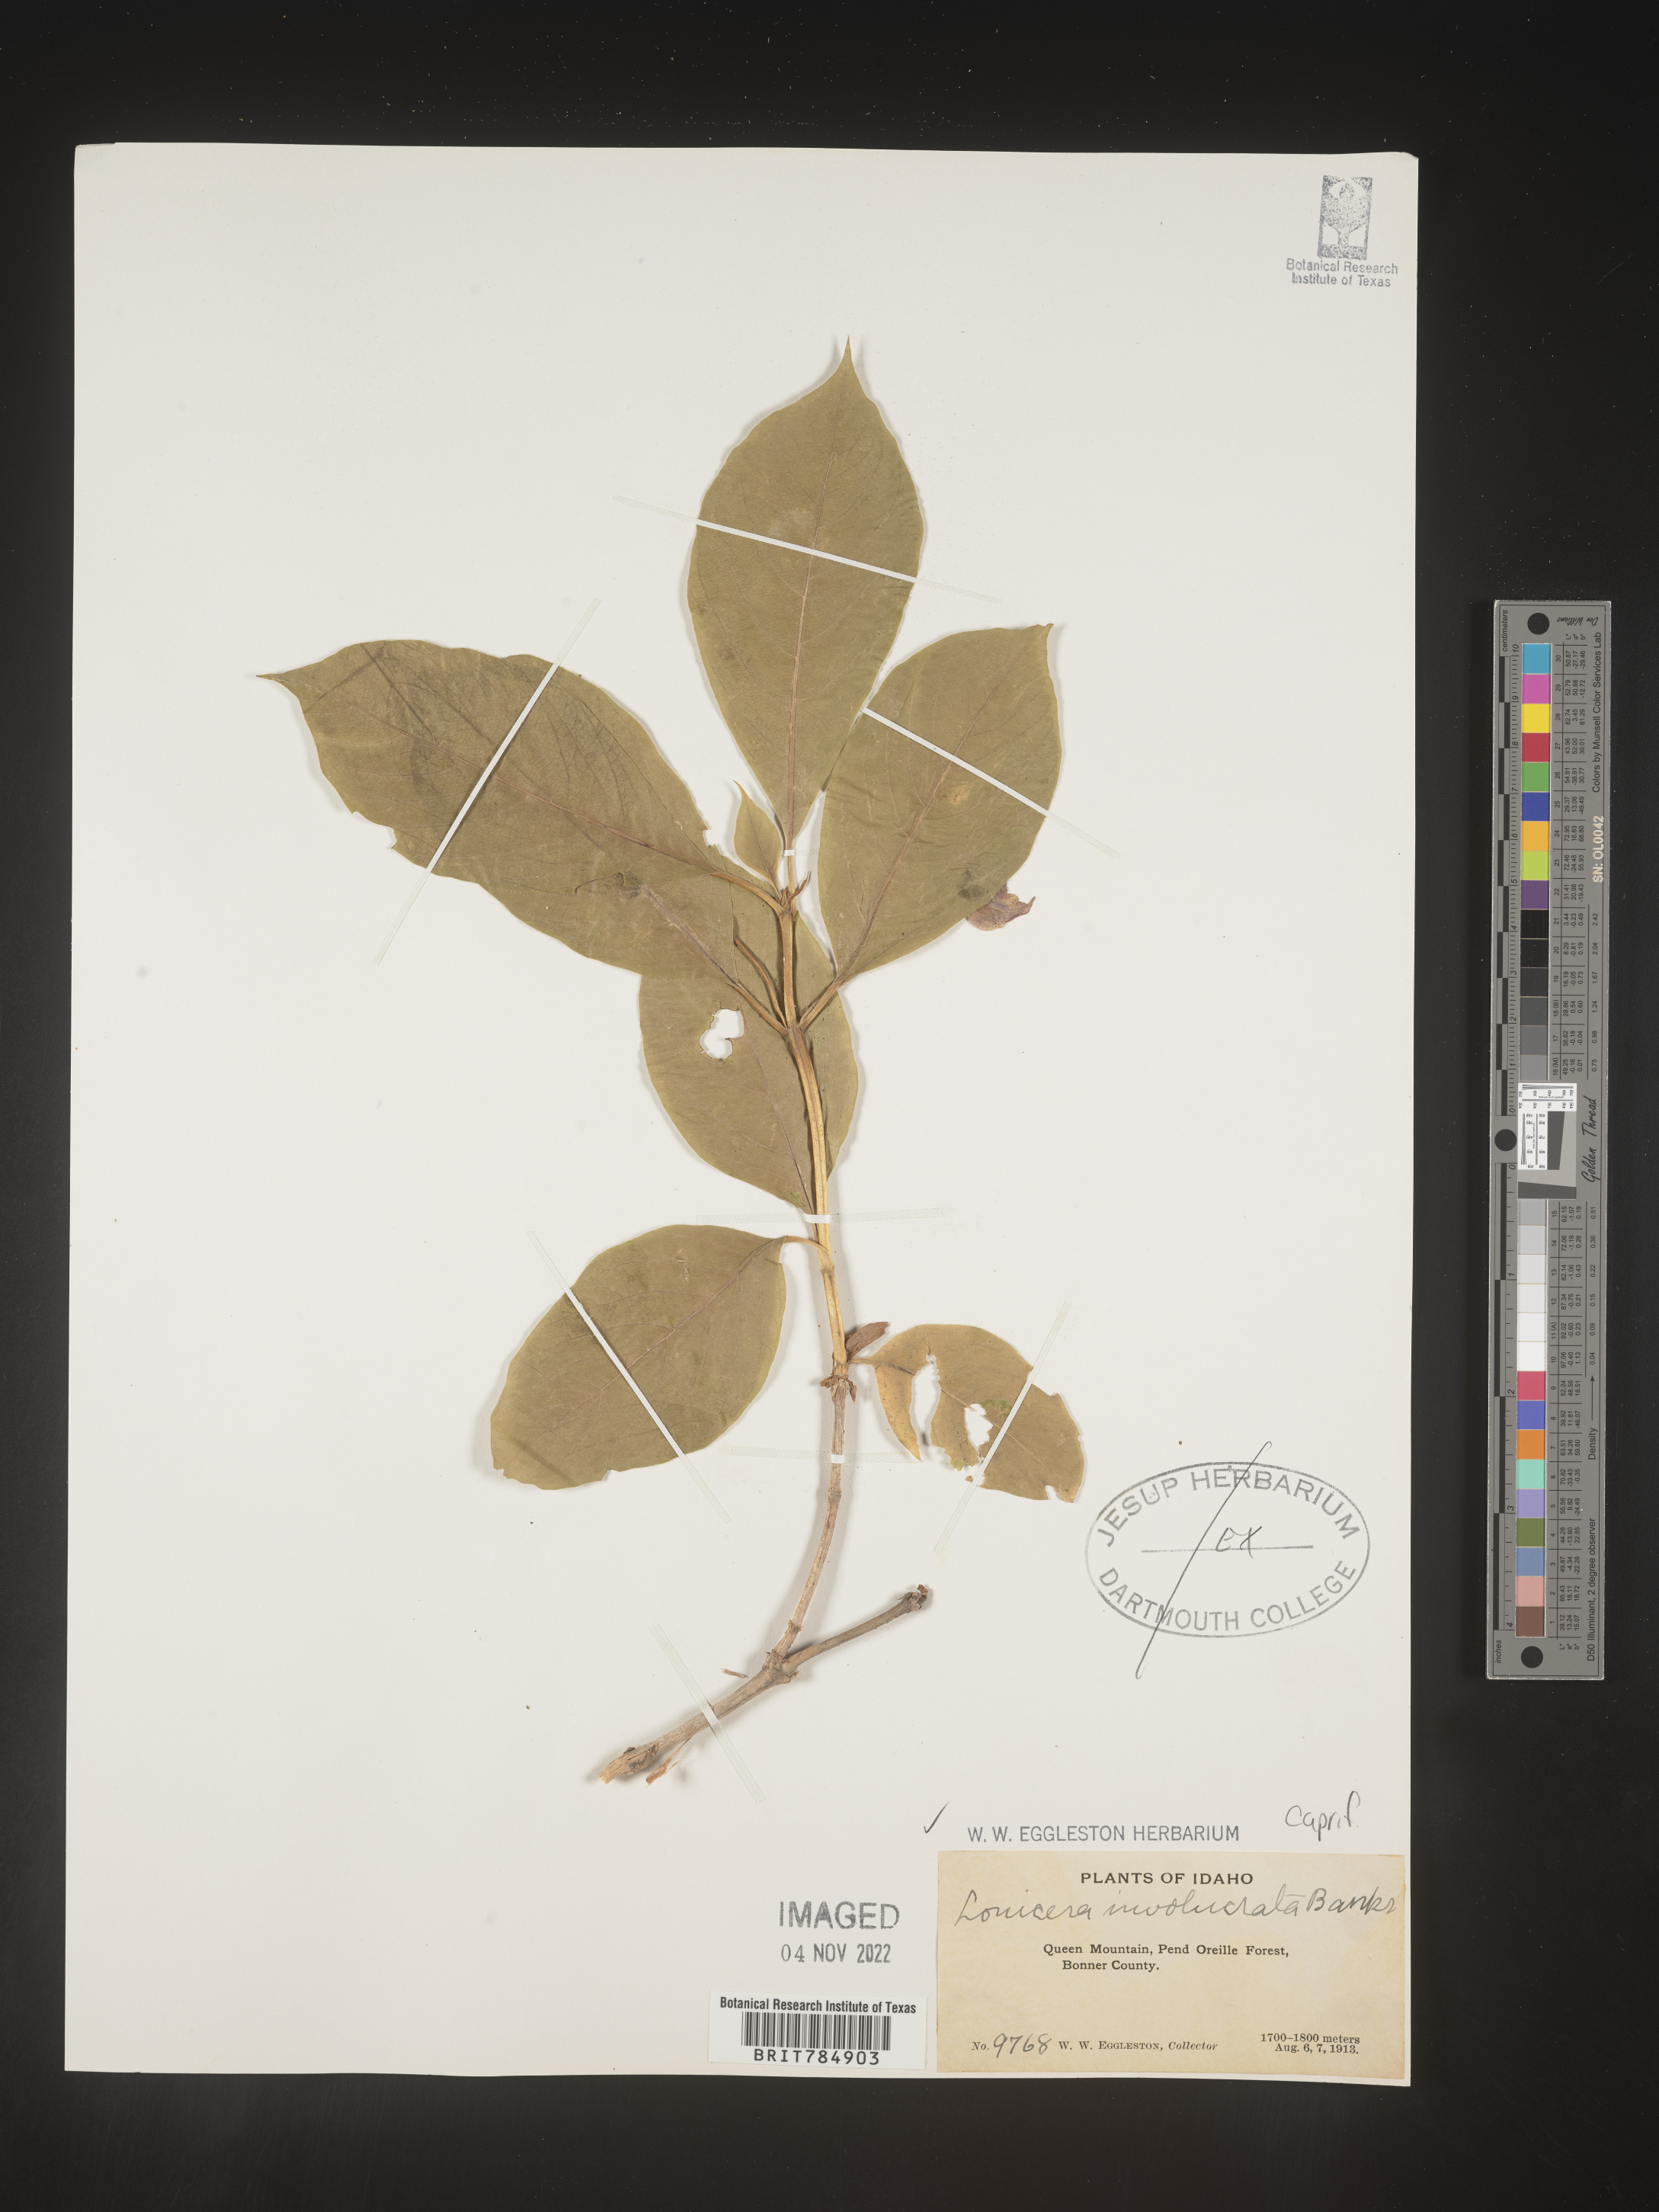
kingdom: Plantae
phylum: Tracheophyta
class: Magnoliopsida
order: Dipsacales
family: Caprifoliaceae
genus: Lonicera
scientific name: Lonicera involucrata
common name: Californian honeysuckle
